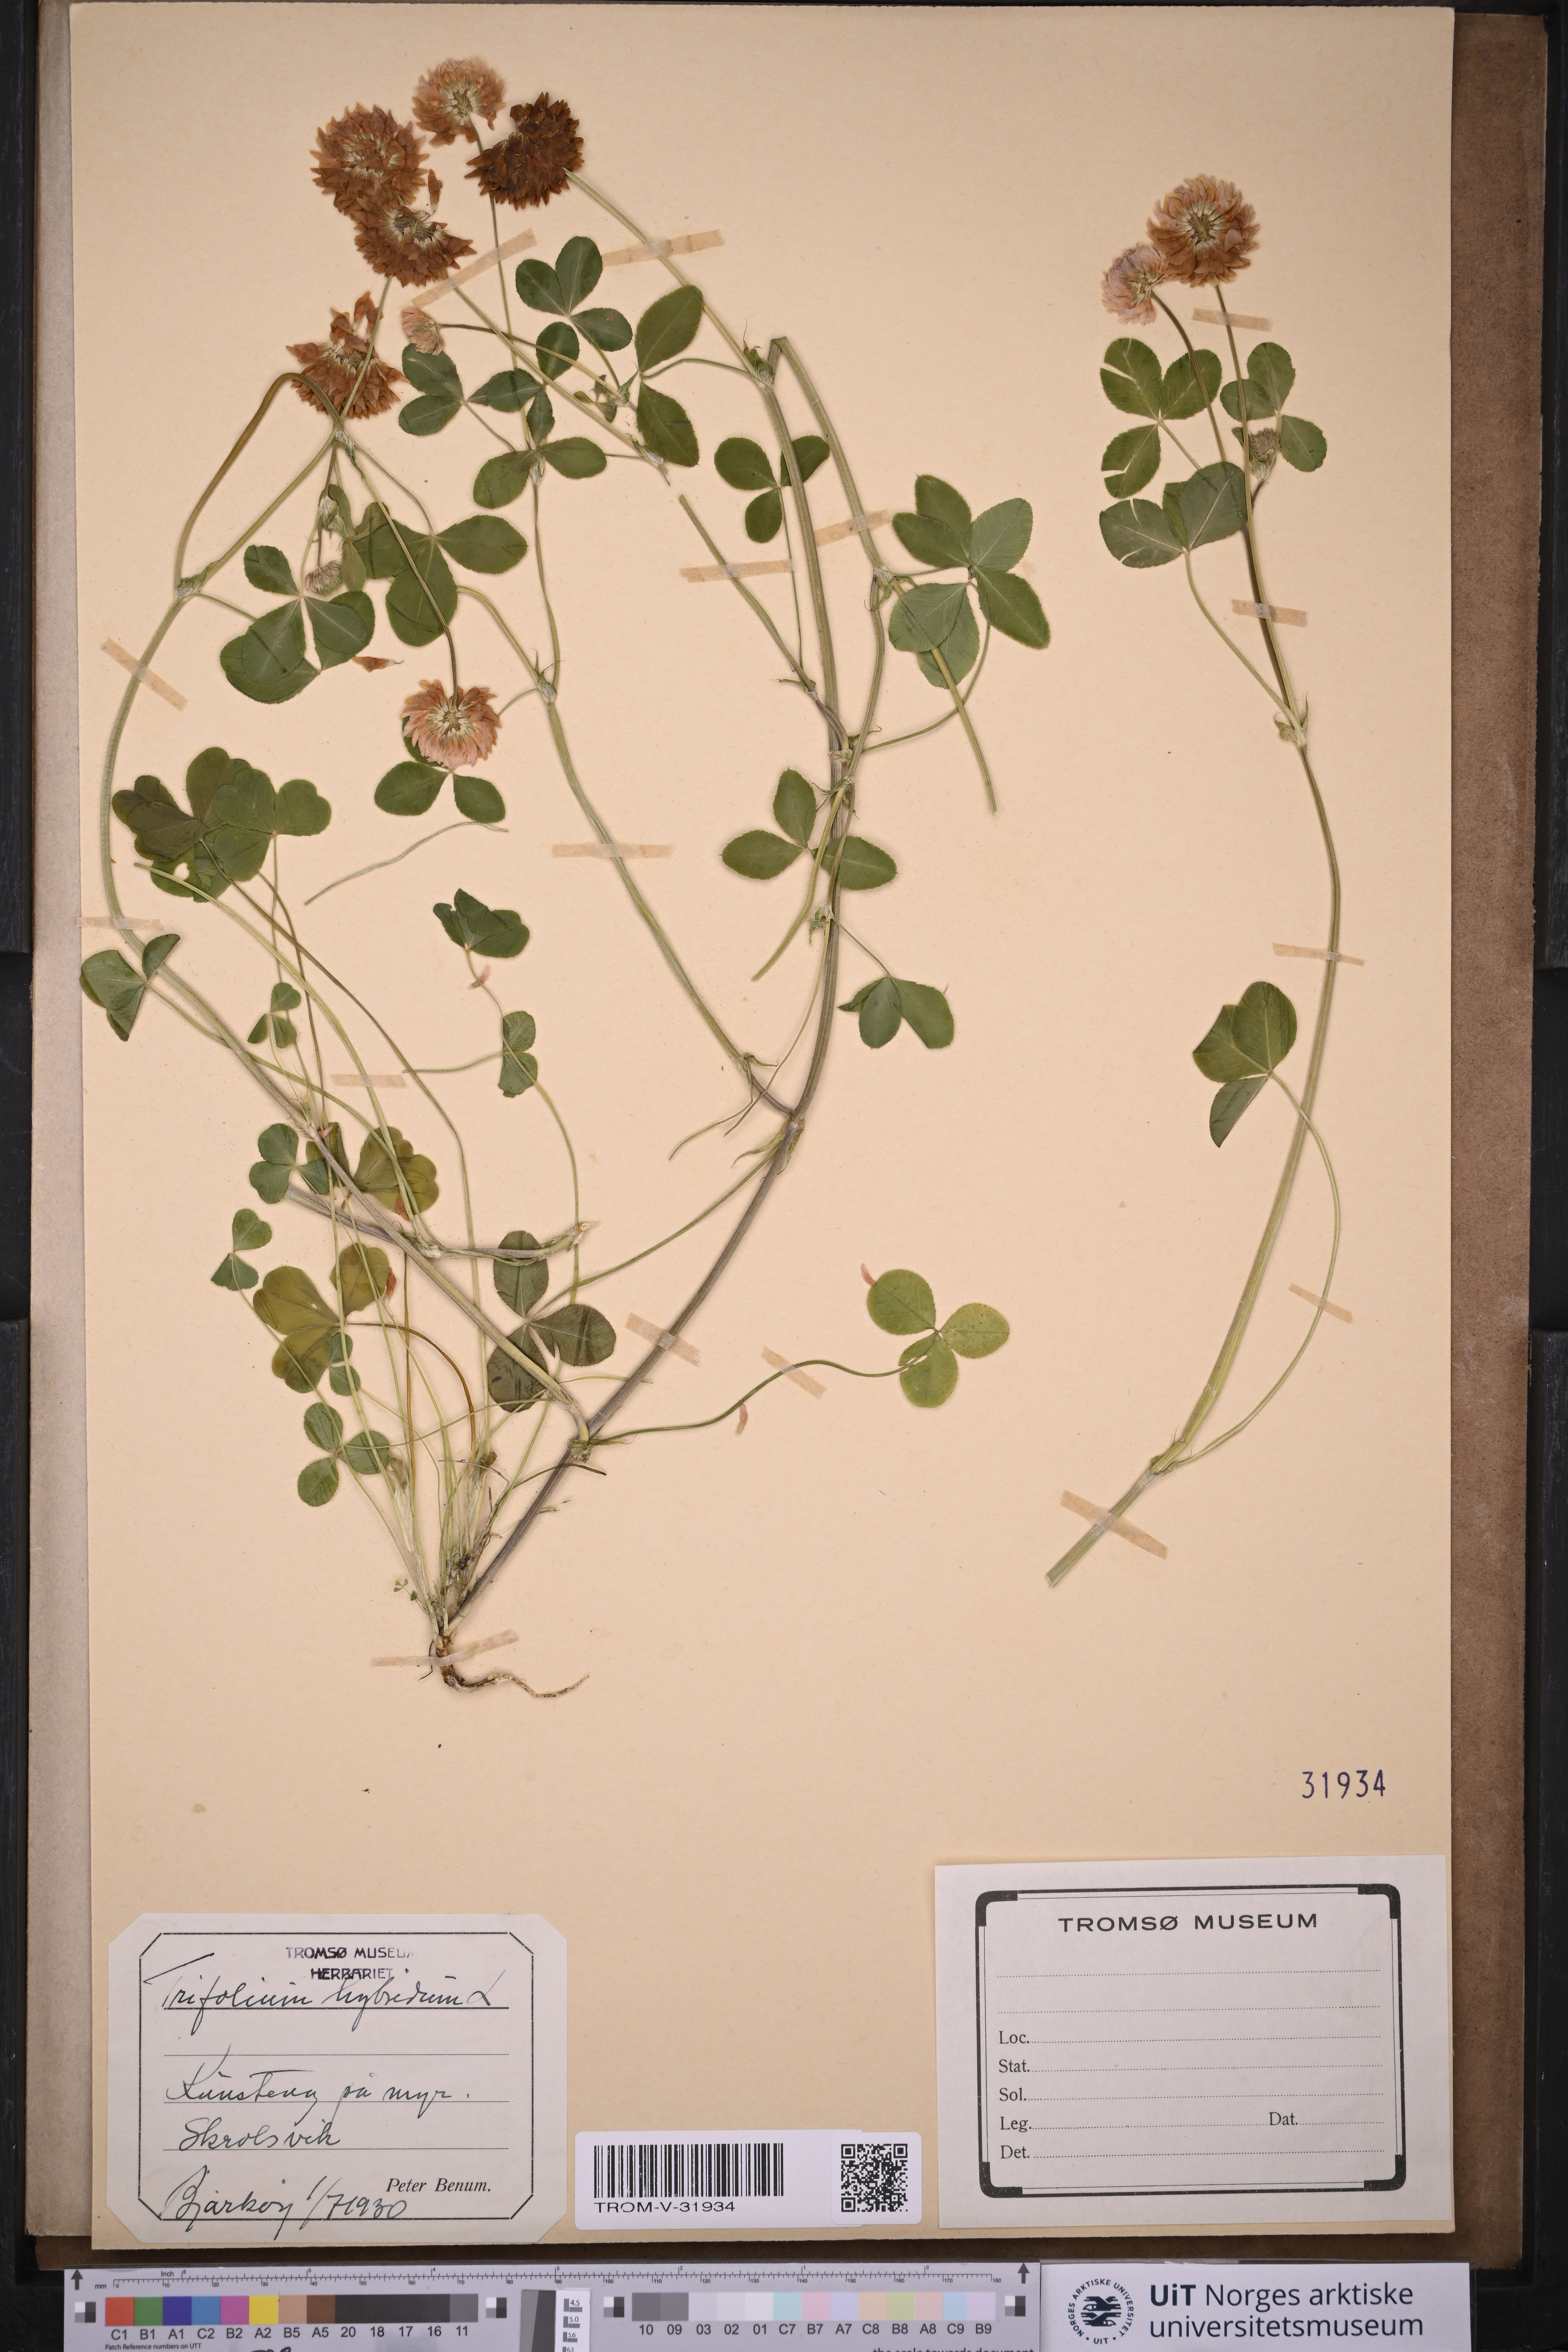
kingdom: Plantae
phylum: Tracheophyta
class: Magnoliopsida
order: Fabales
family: Fabaceae
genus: Trifolium
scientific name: Trifolium hybridum
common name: Alsike clover
